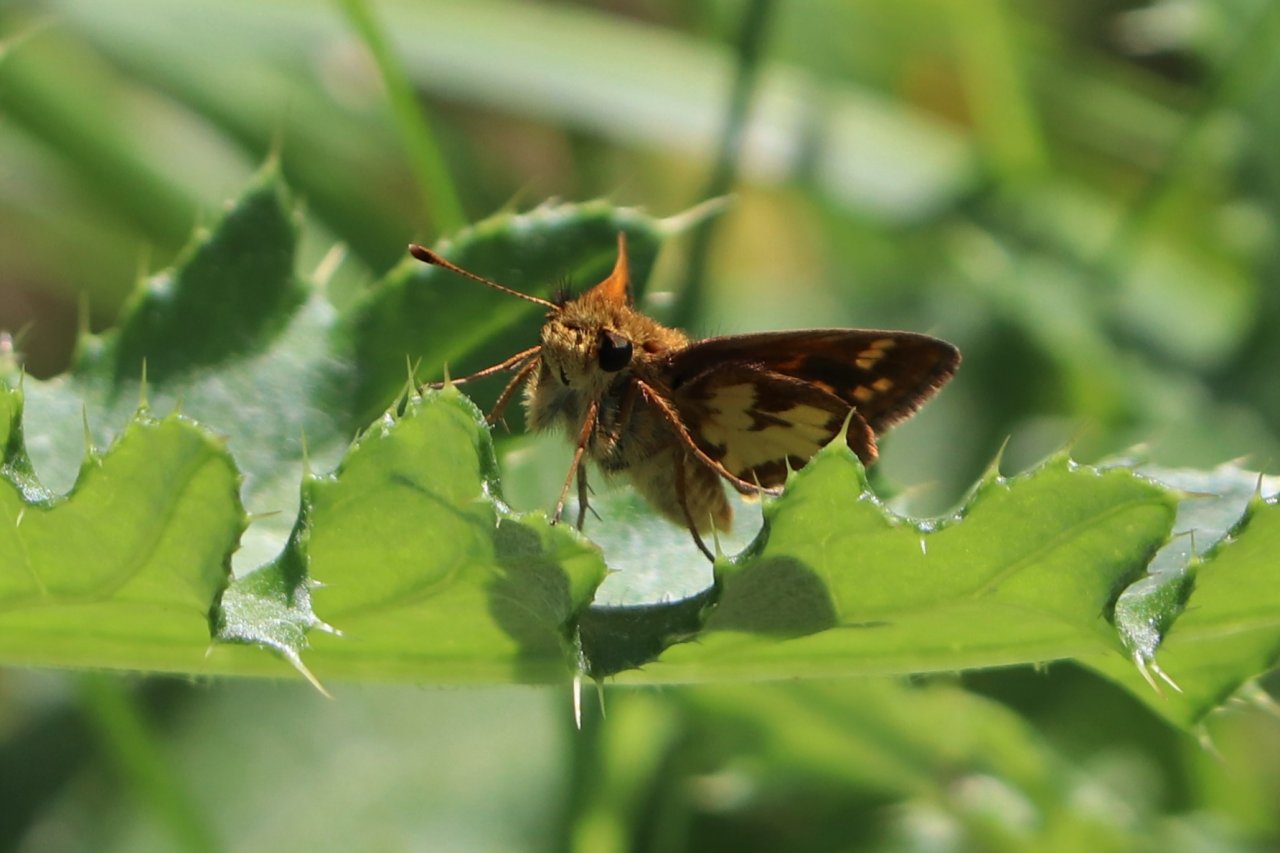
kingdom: Animalia
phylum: Arthropoda
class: Insecta
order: Lepidoptera
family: Hesperiidae
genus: Polites
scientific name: Polites coras
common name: Peck's Skipper
